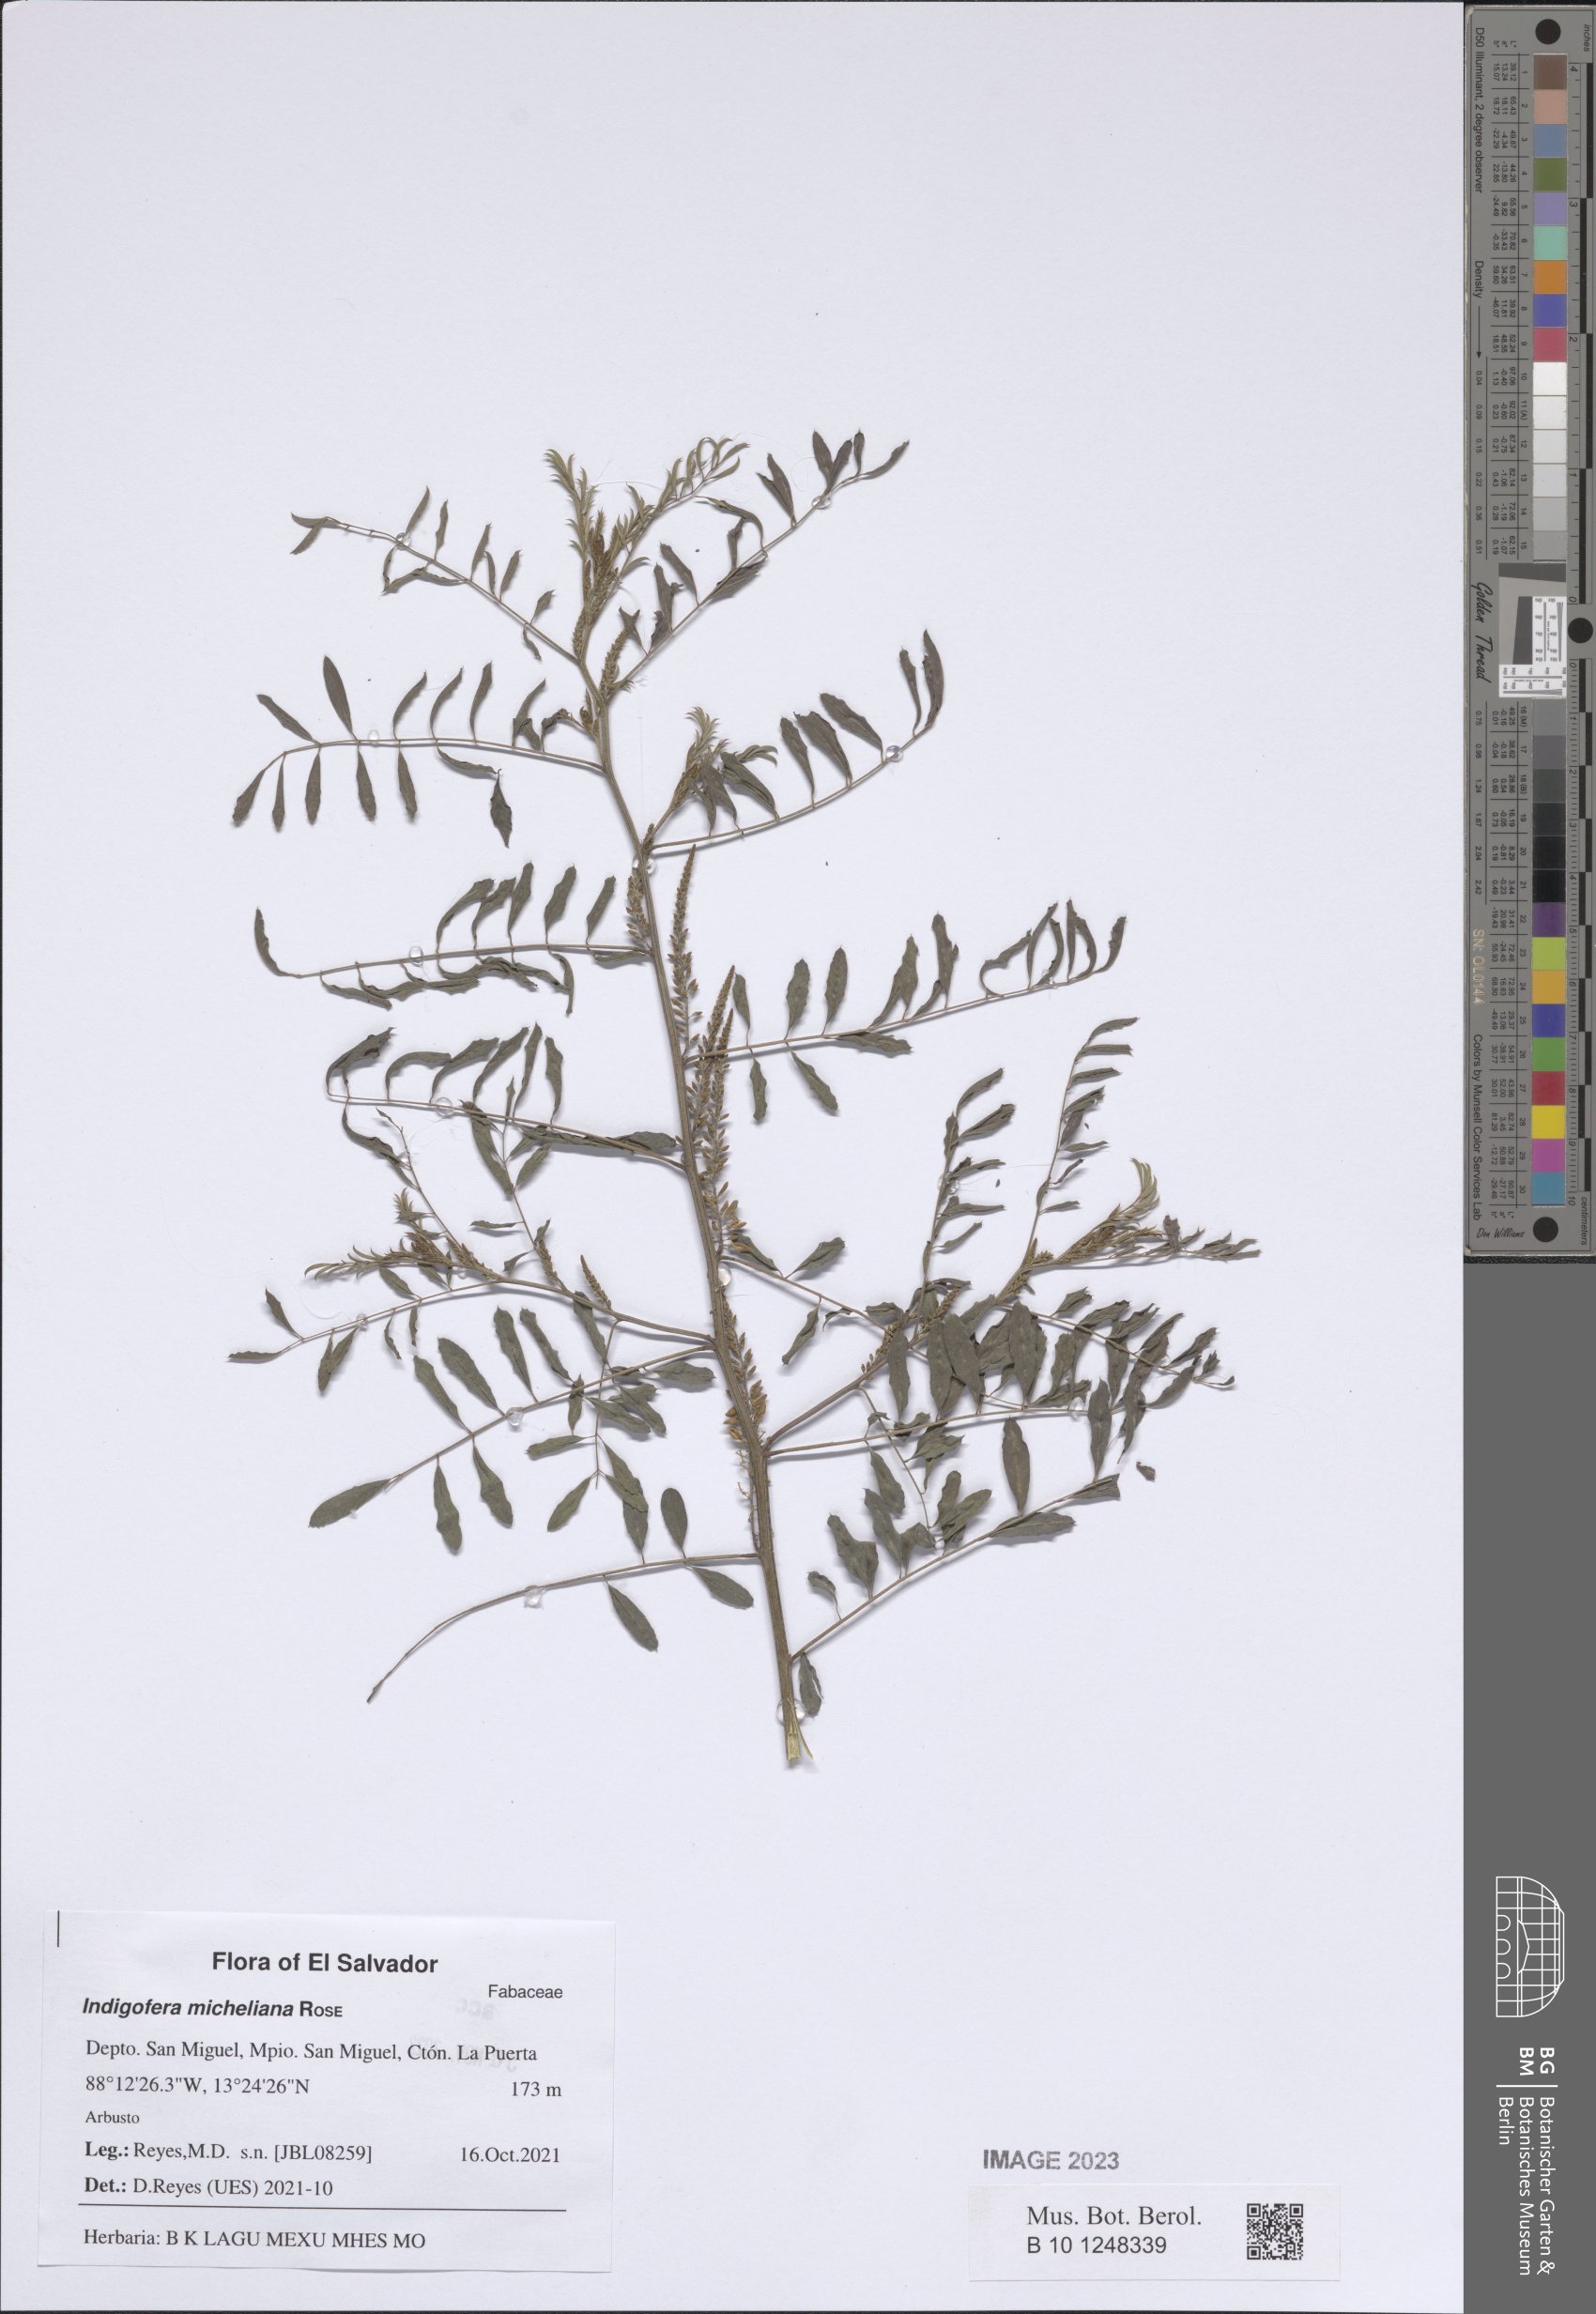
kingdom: Plantae
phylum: Tracheophyta
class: Magnoliopsida
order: Fabales
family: Fabaceae
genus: Indigofera
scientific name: Indigofera micheliana
